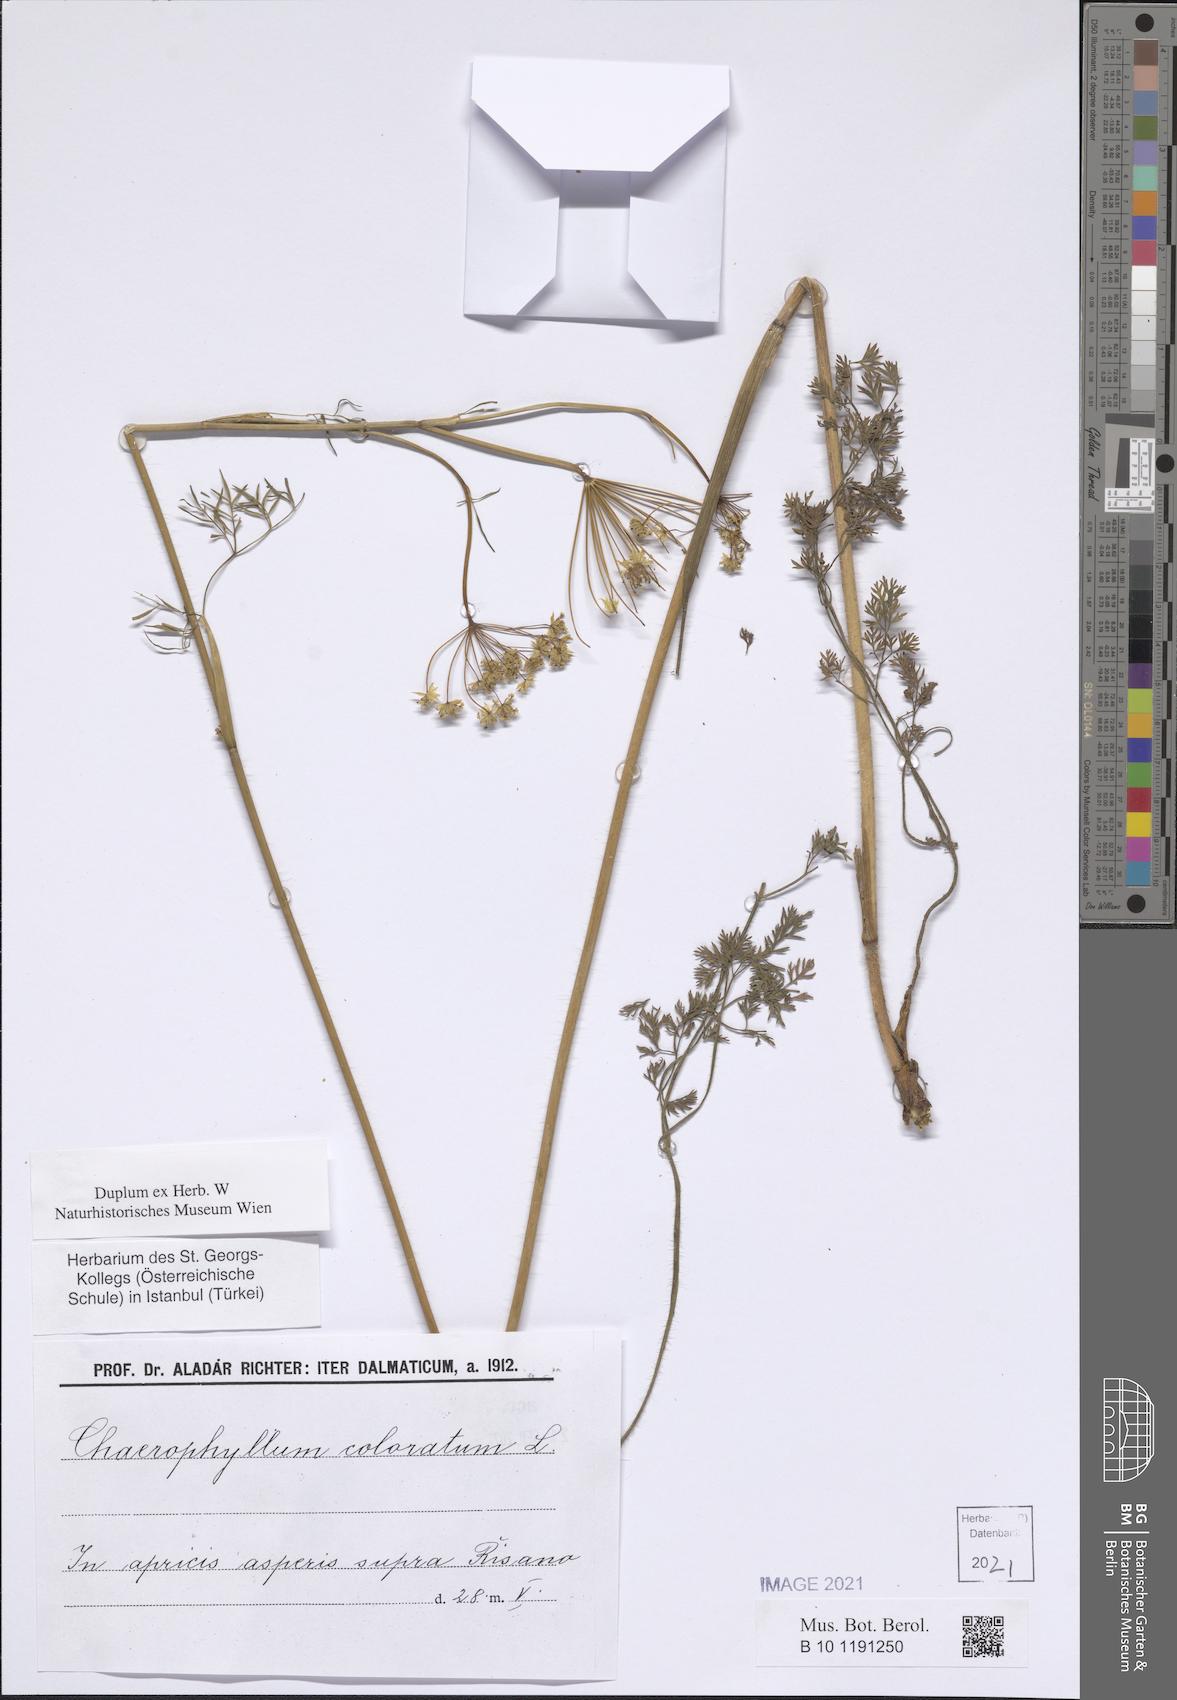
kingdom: Plantae
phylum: Tracheophyta
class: Magnoliopsida
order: Apiales
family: Apiaceae
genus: Chaerophyllum
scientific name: Chaerophyllum coloratum
